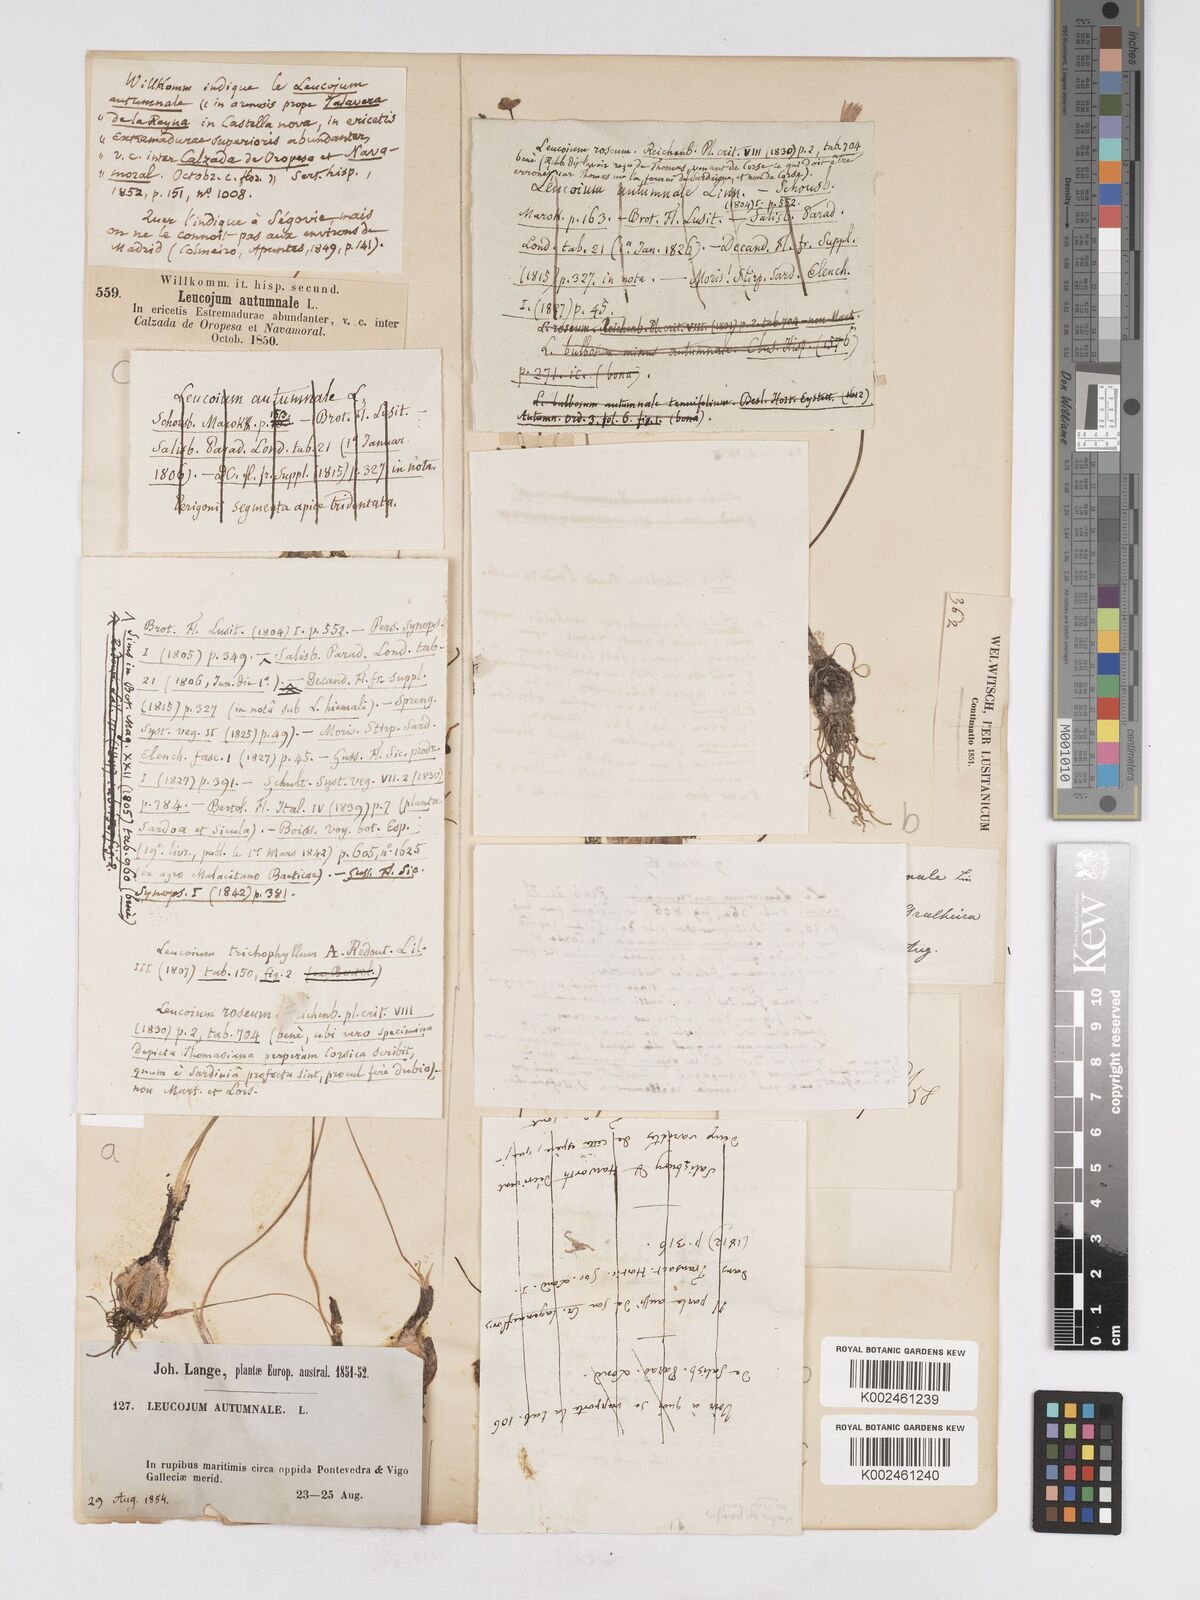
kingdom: Plantae
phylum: Tracheophyta
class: Liliopsida
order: Asparagales
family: Amaryllidaceae
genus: Acis
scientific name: Acis autumnalis
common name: Autumn snowflake
